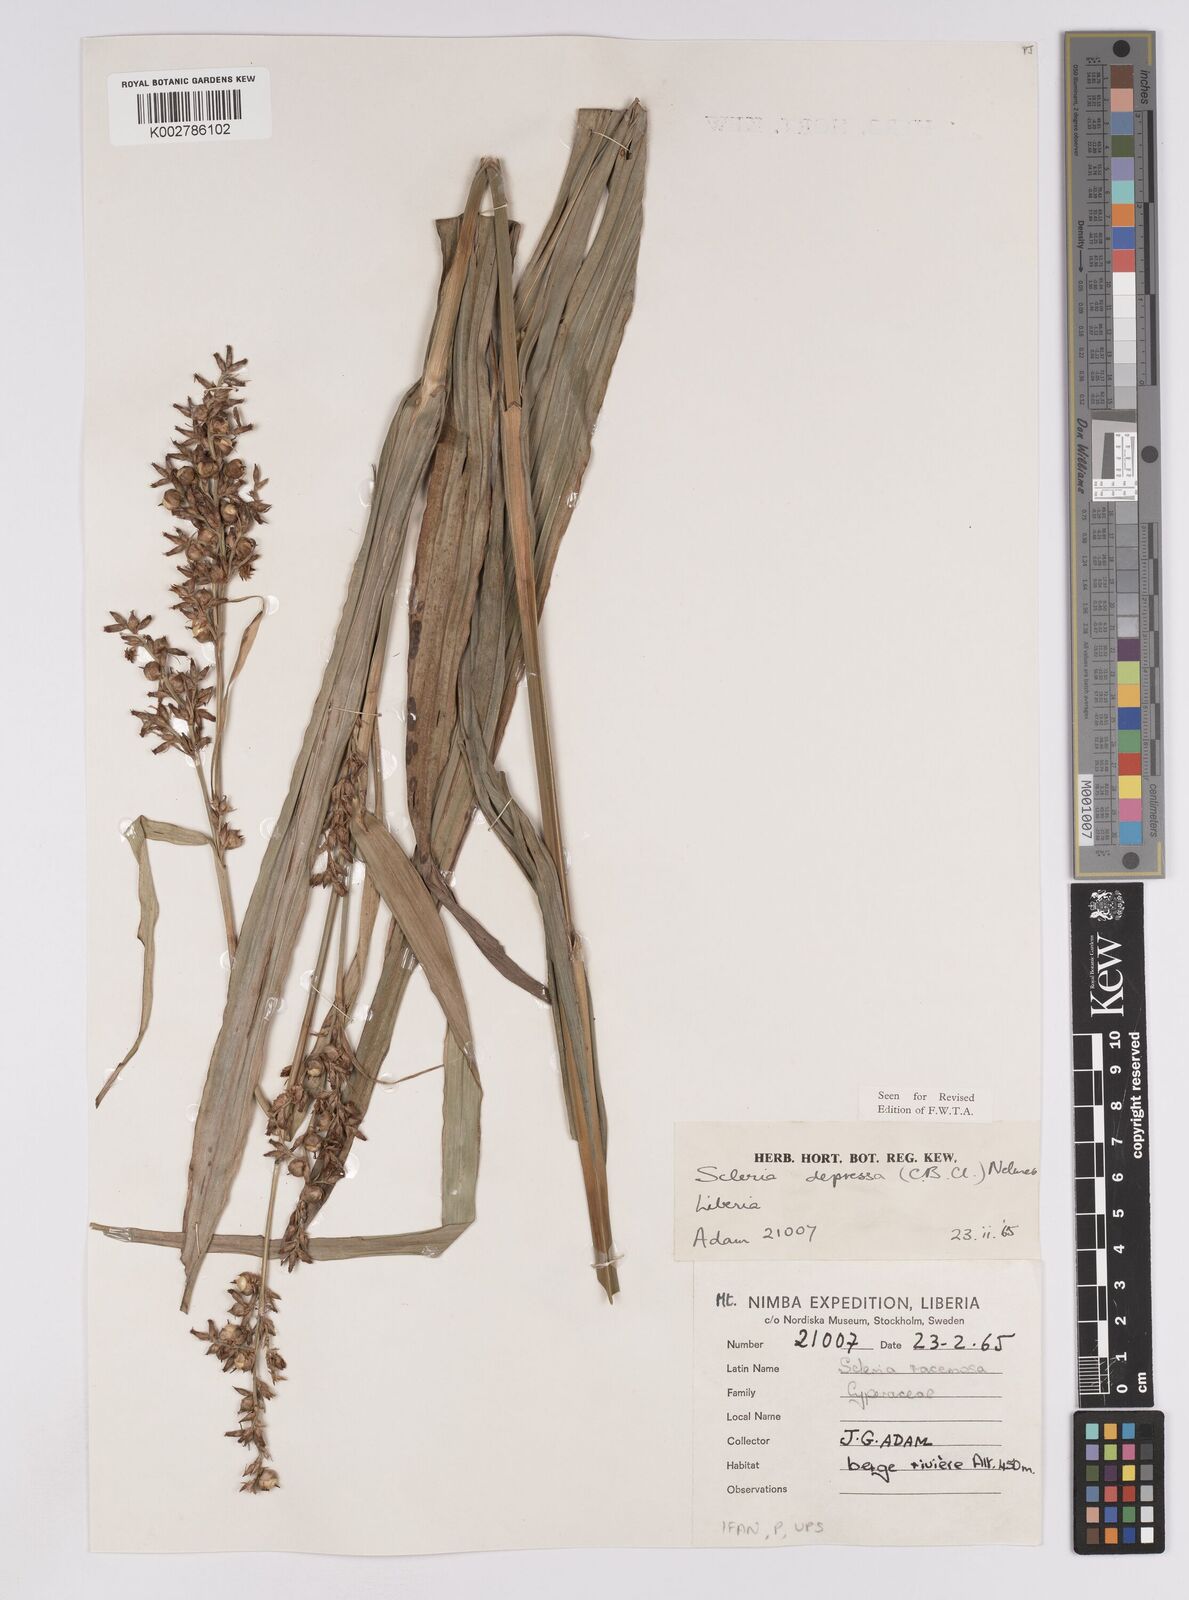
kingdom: Plantae
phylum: Tracheophyta
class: Liliopsida
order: Poales
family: Cyperaceae
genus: Scleria
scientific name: Scleria depressa
